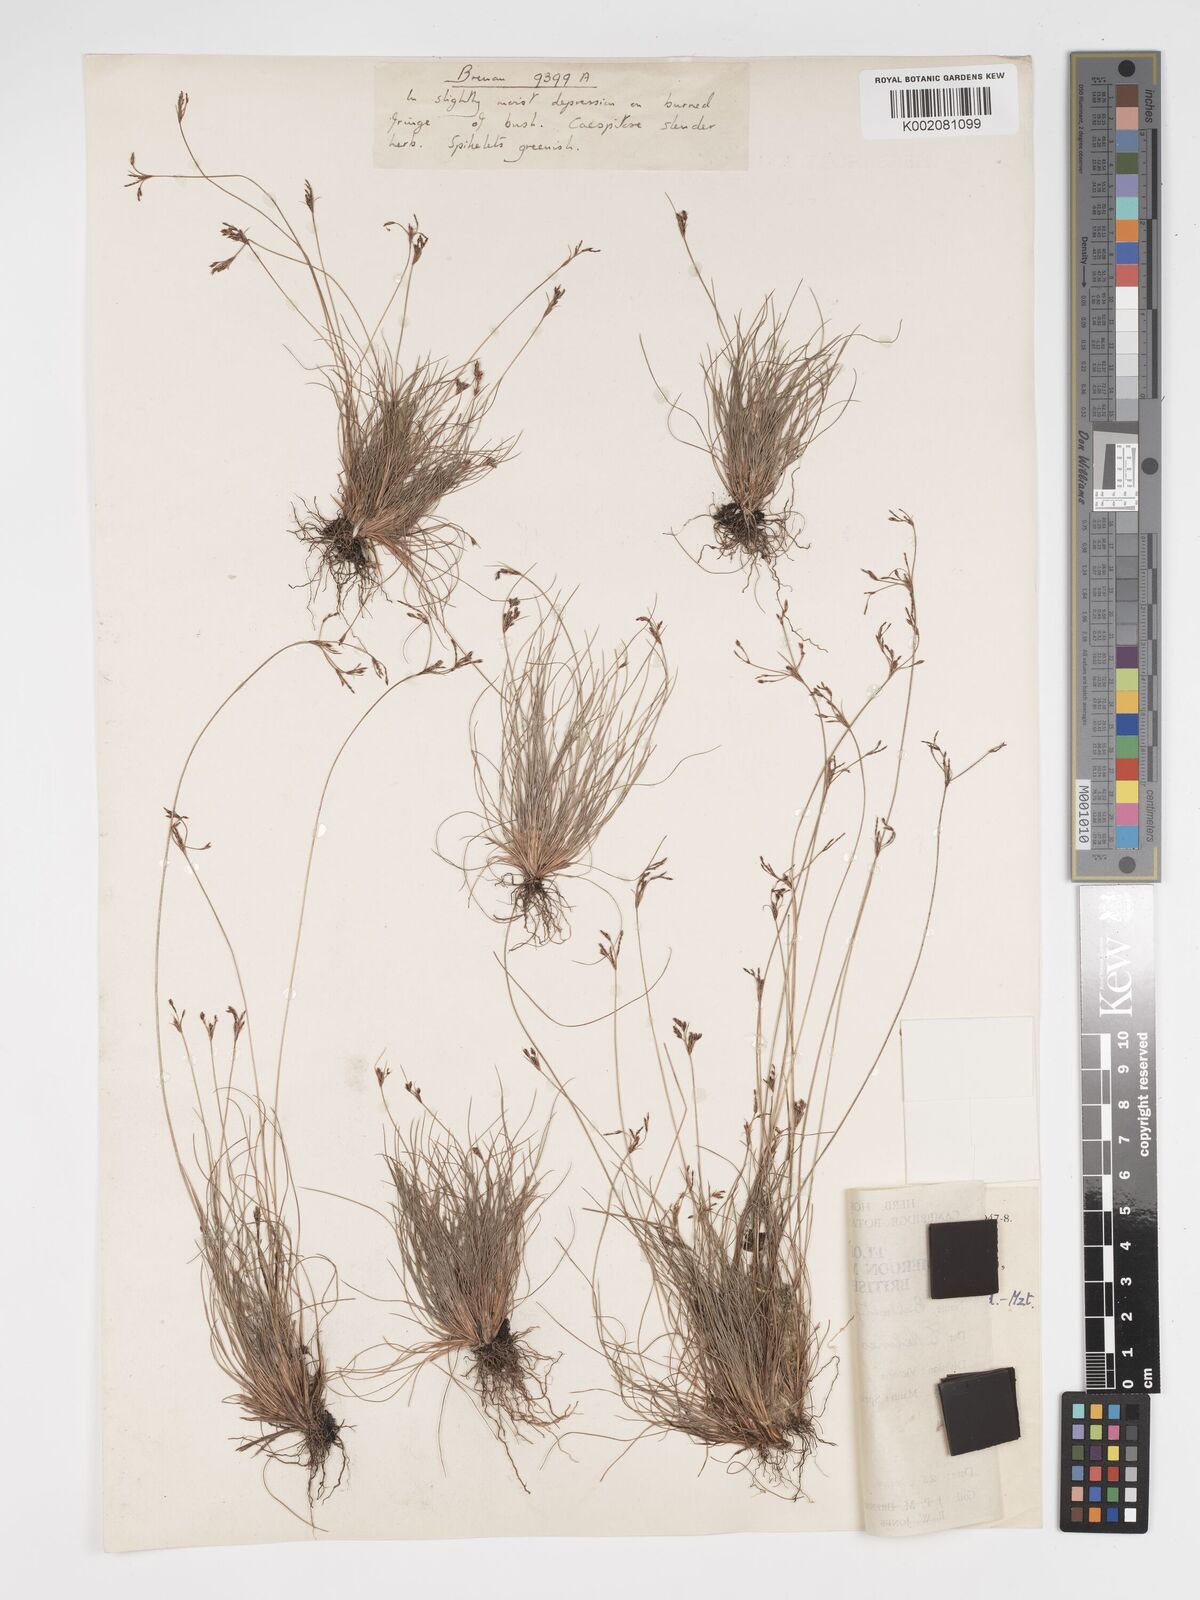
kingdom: Plantae
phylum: Tracheophyta
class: Liliopsida
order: Poales
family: Cyperaceae
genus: Bulbostylis
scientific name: Bulbostylis densa
